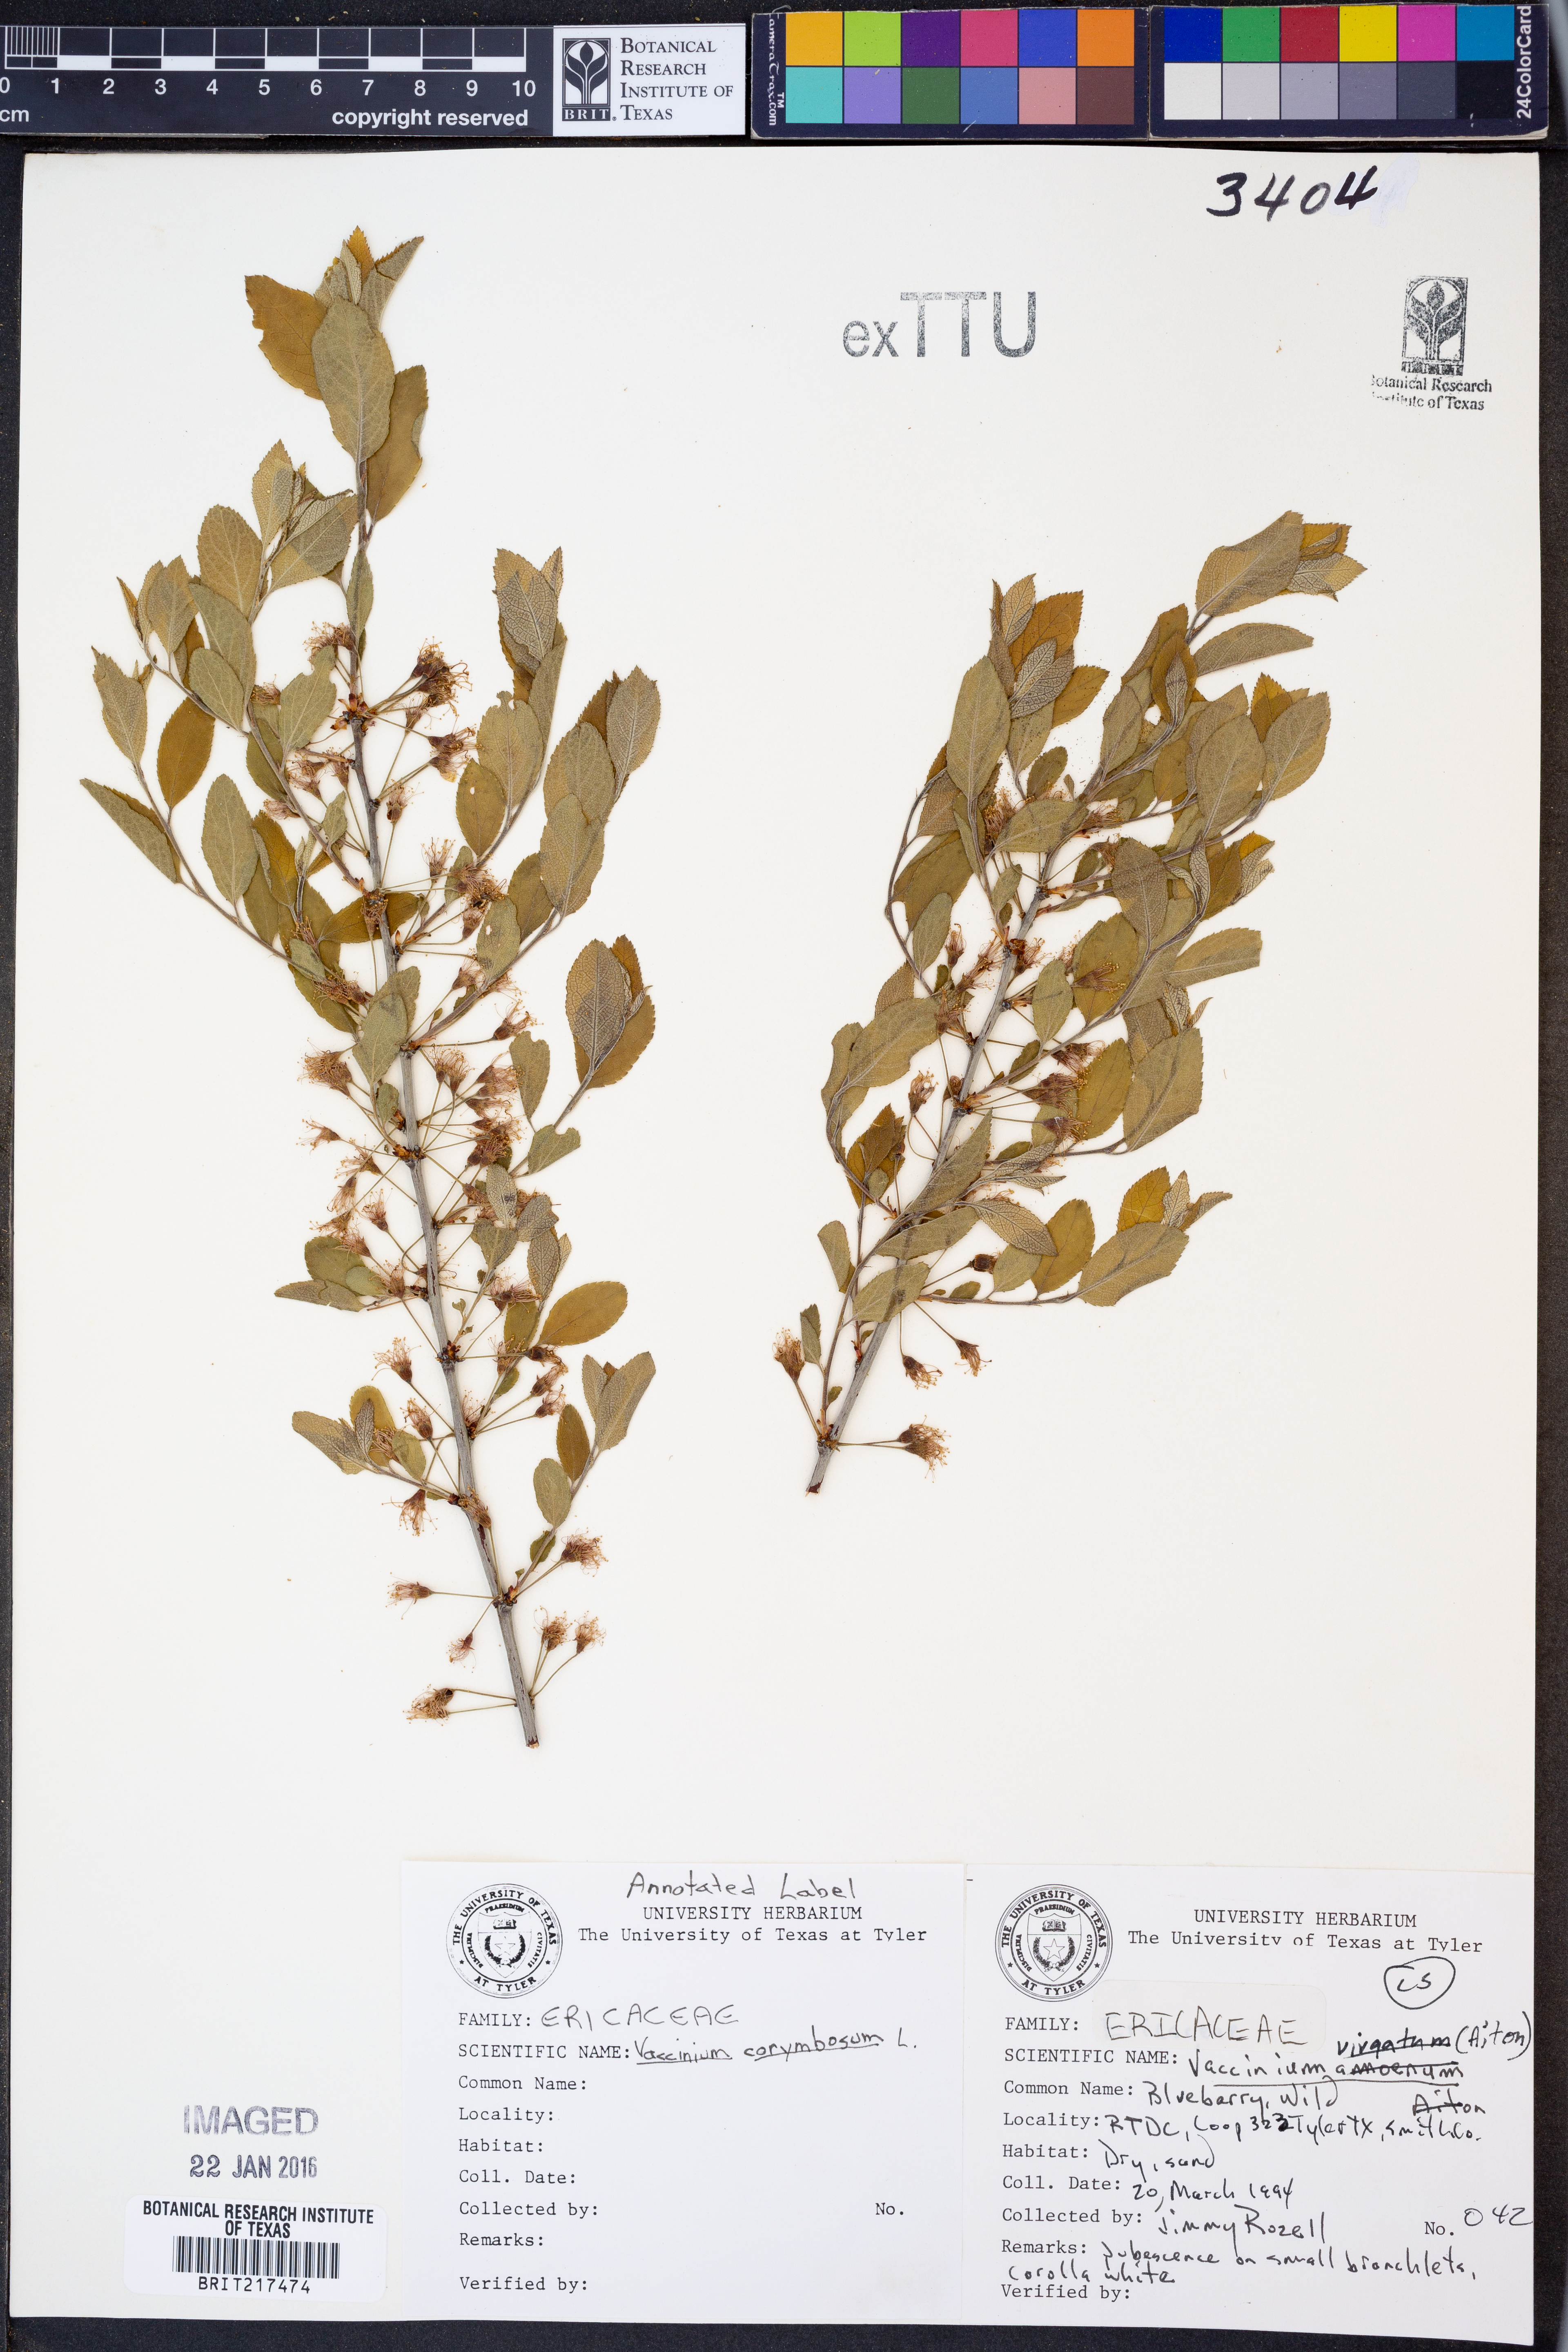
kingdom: Plantae
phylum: Tracheophyta
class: Magnoliopsida
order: Ericales
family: Ericaceae
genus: Vaccinium
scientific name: Vaccinium corymbosum
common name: Blueberry
